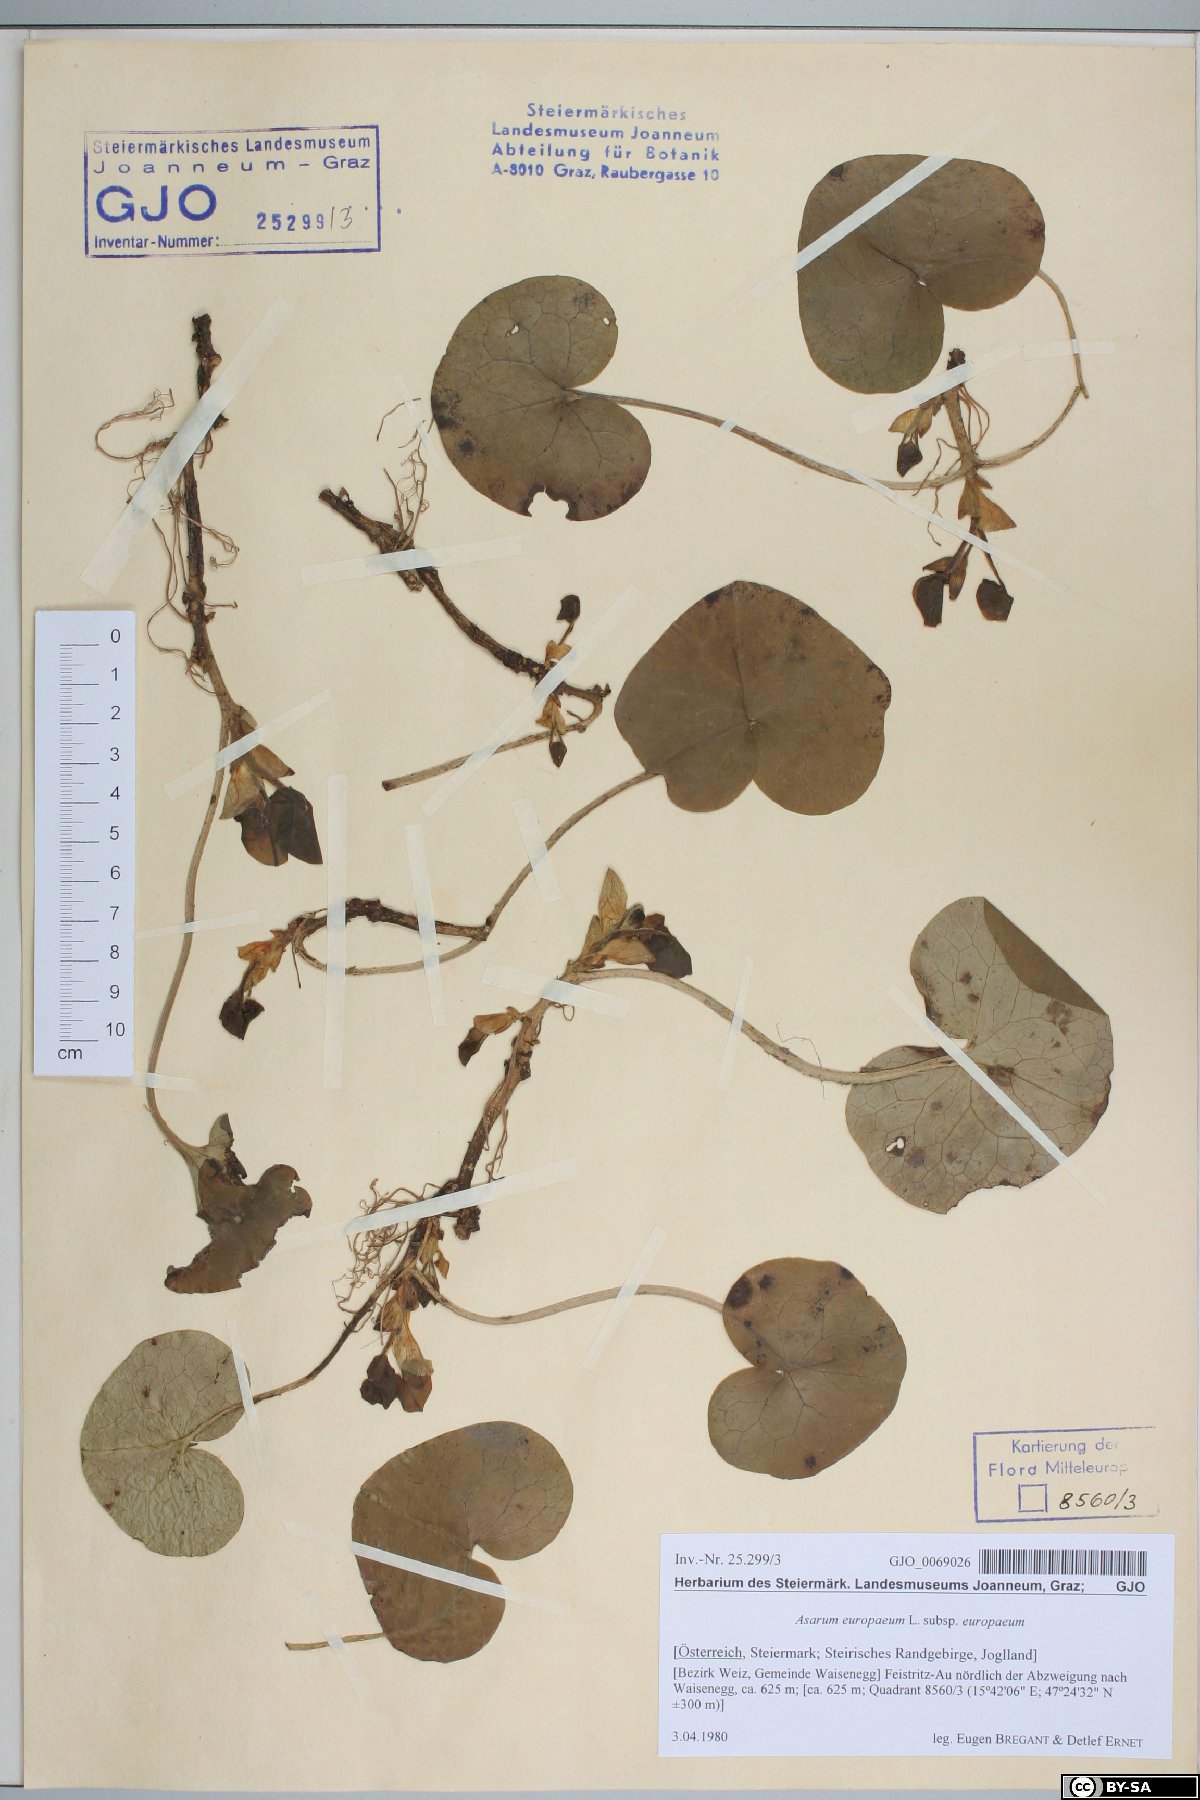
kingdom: Plantae
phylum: Tracheophyta
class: Magnoliopsida
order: Piperales
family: Aristolochiaceae
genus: Asarum
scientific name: Asarum europaeum
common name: Asarabacca
